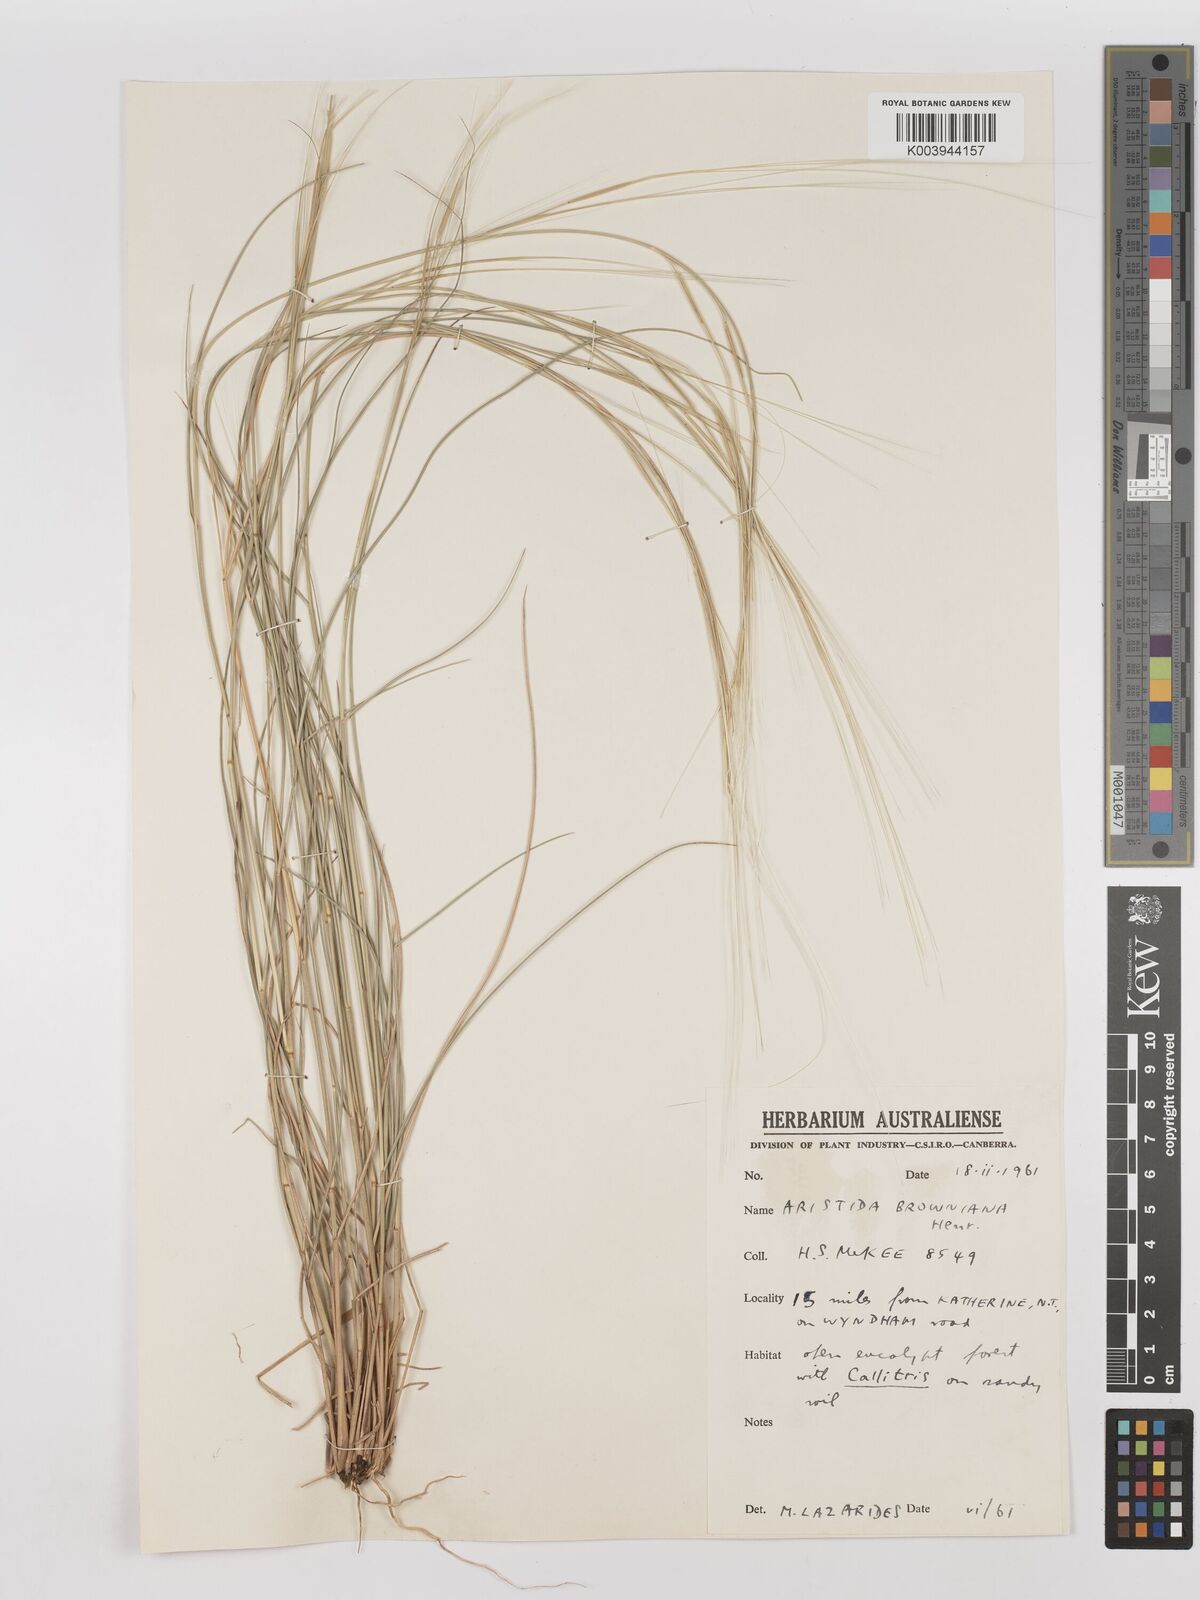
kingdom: Plantae
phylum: Tracheophyta
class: Liliopsida
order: Poales
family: Poaceae
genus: Aristida
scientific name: Aristida holathera
